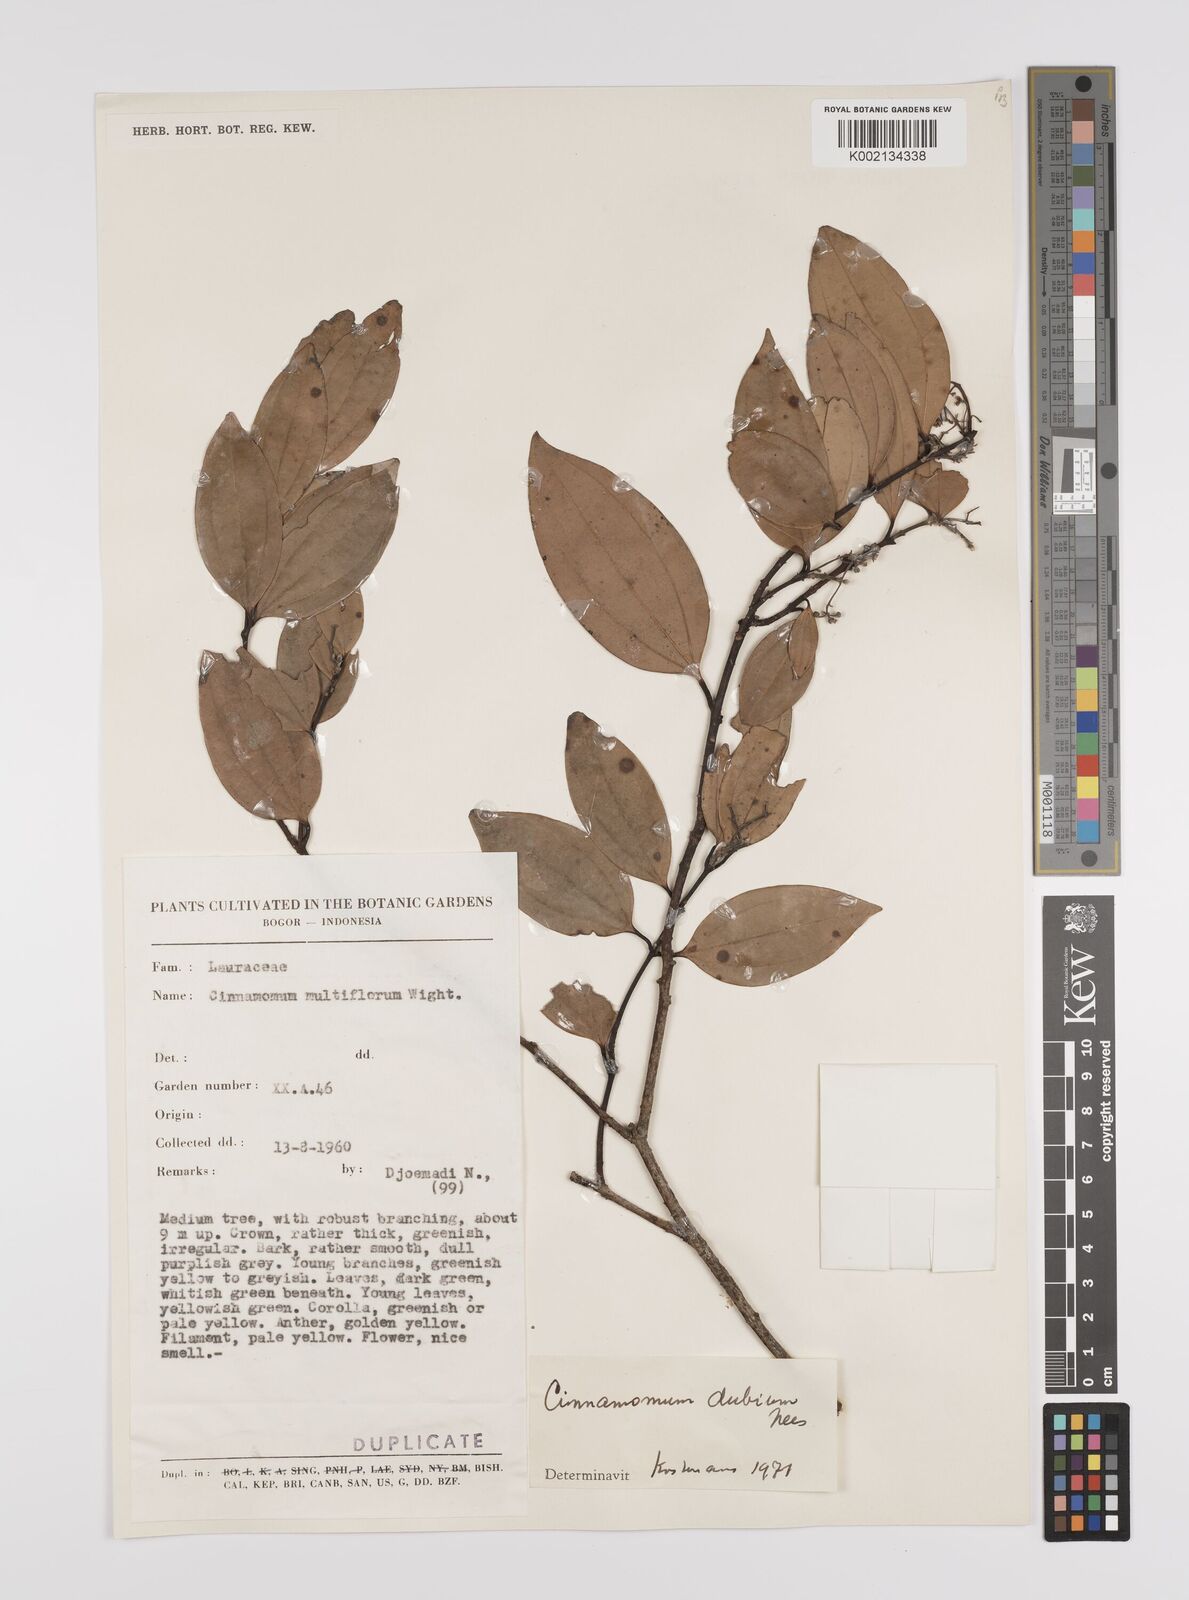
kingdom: Plantae
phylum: Tracheophyta
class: Magnoliopsida
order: Laurales
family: Lauraceae
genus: Cinnamomum
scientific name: Cinnamomum dubium
